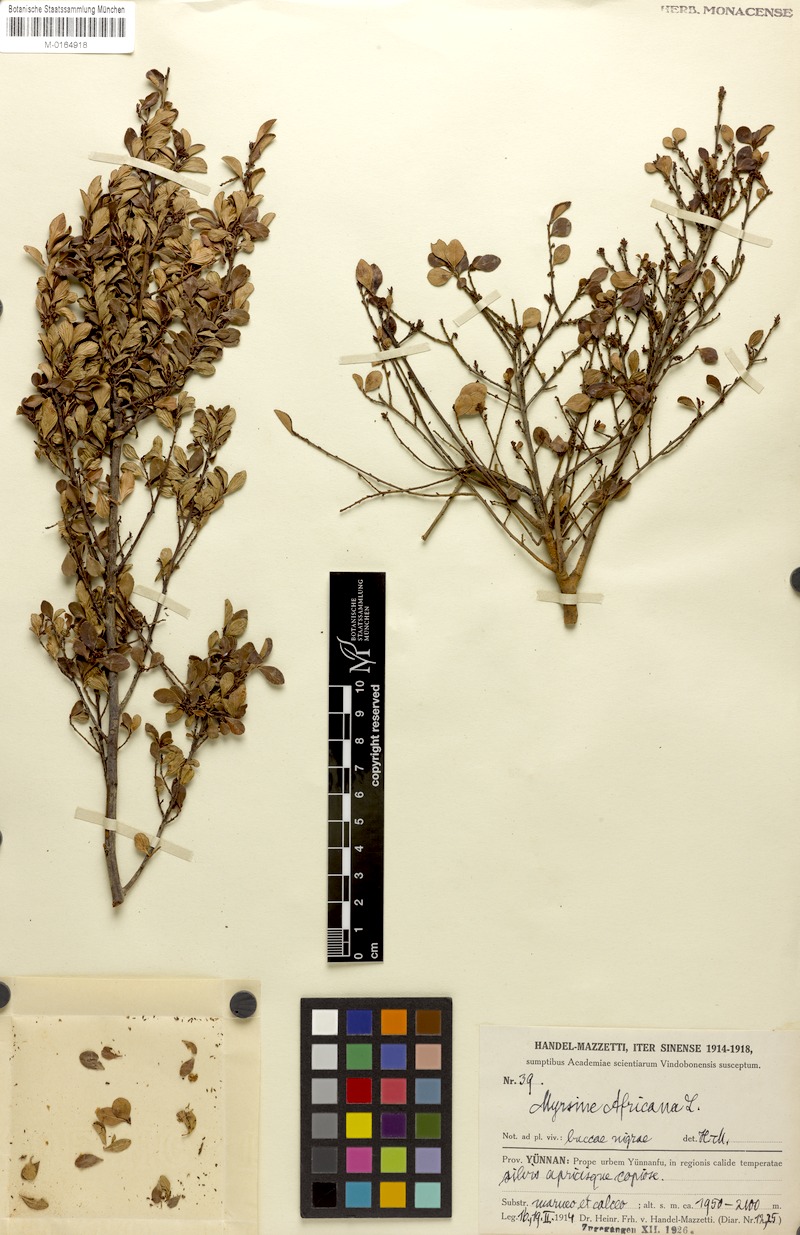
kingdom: Plantae
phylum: Tracheophyta
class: Magnoliopsida
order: Ericales
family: Primulaceae
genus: Myrsine
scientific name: Myrsine africana
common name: African-boxwood
